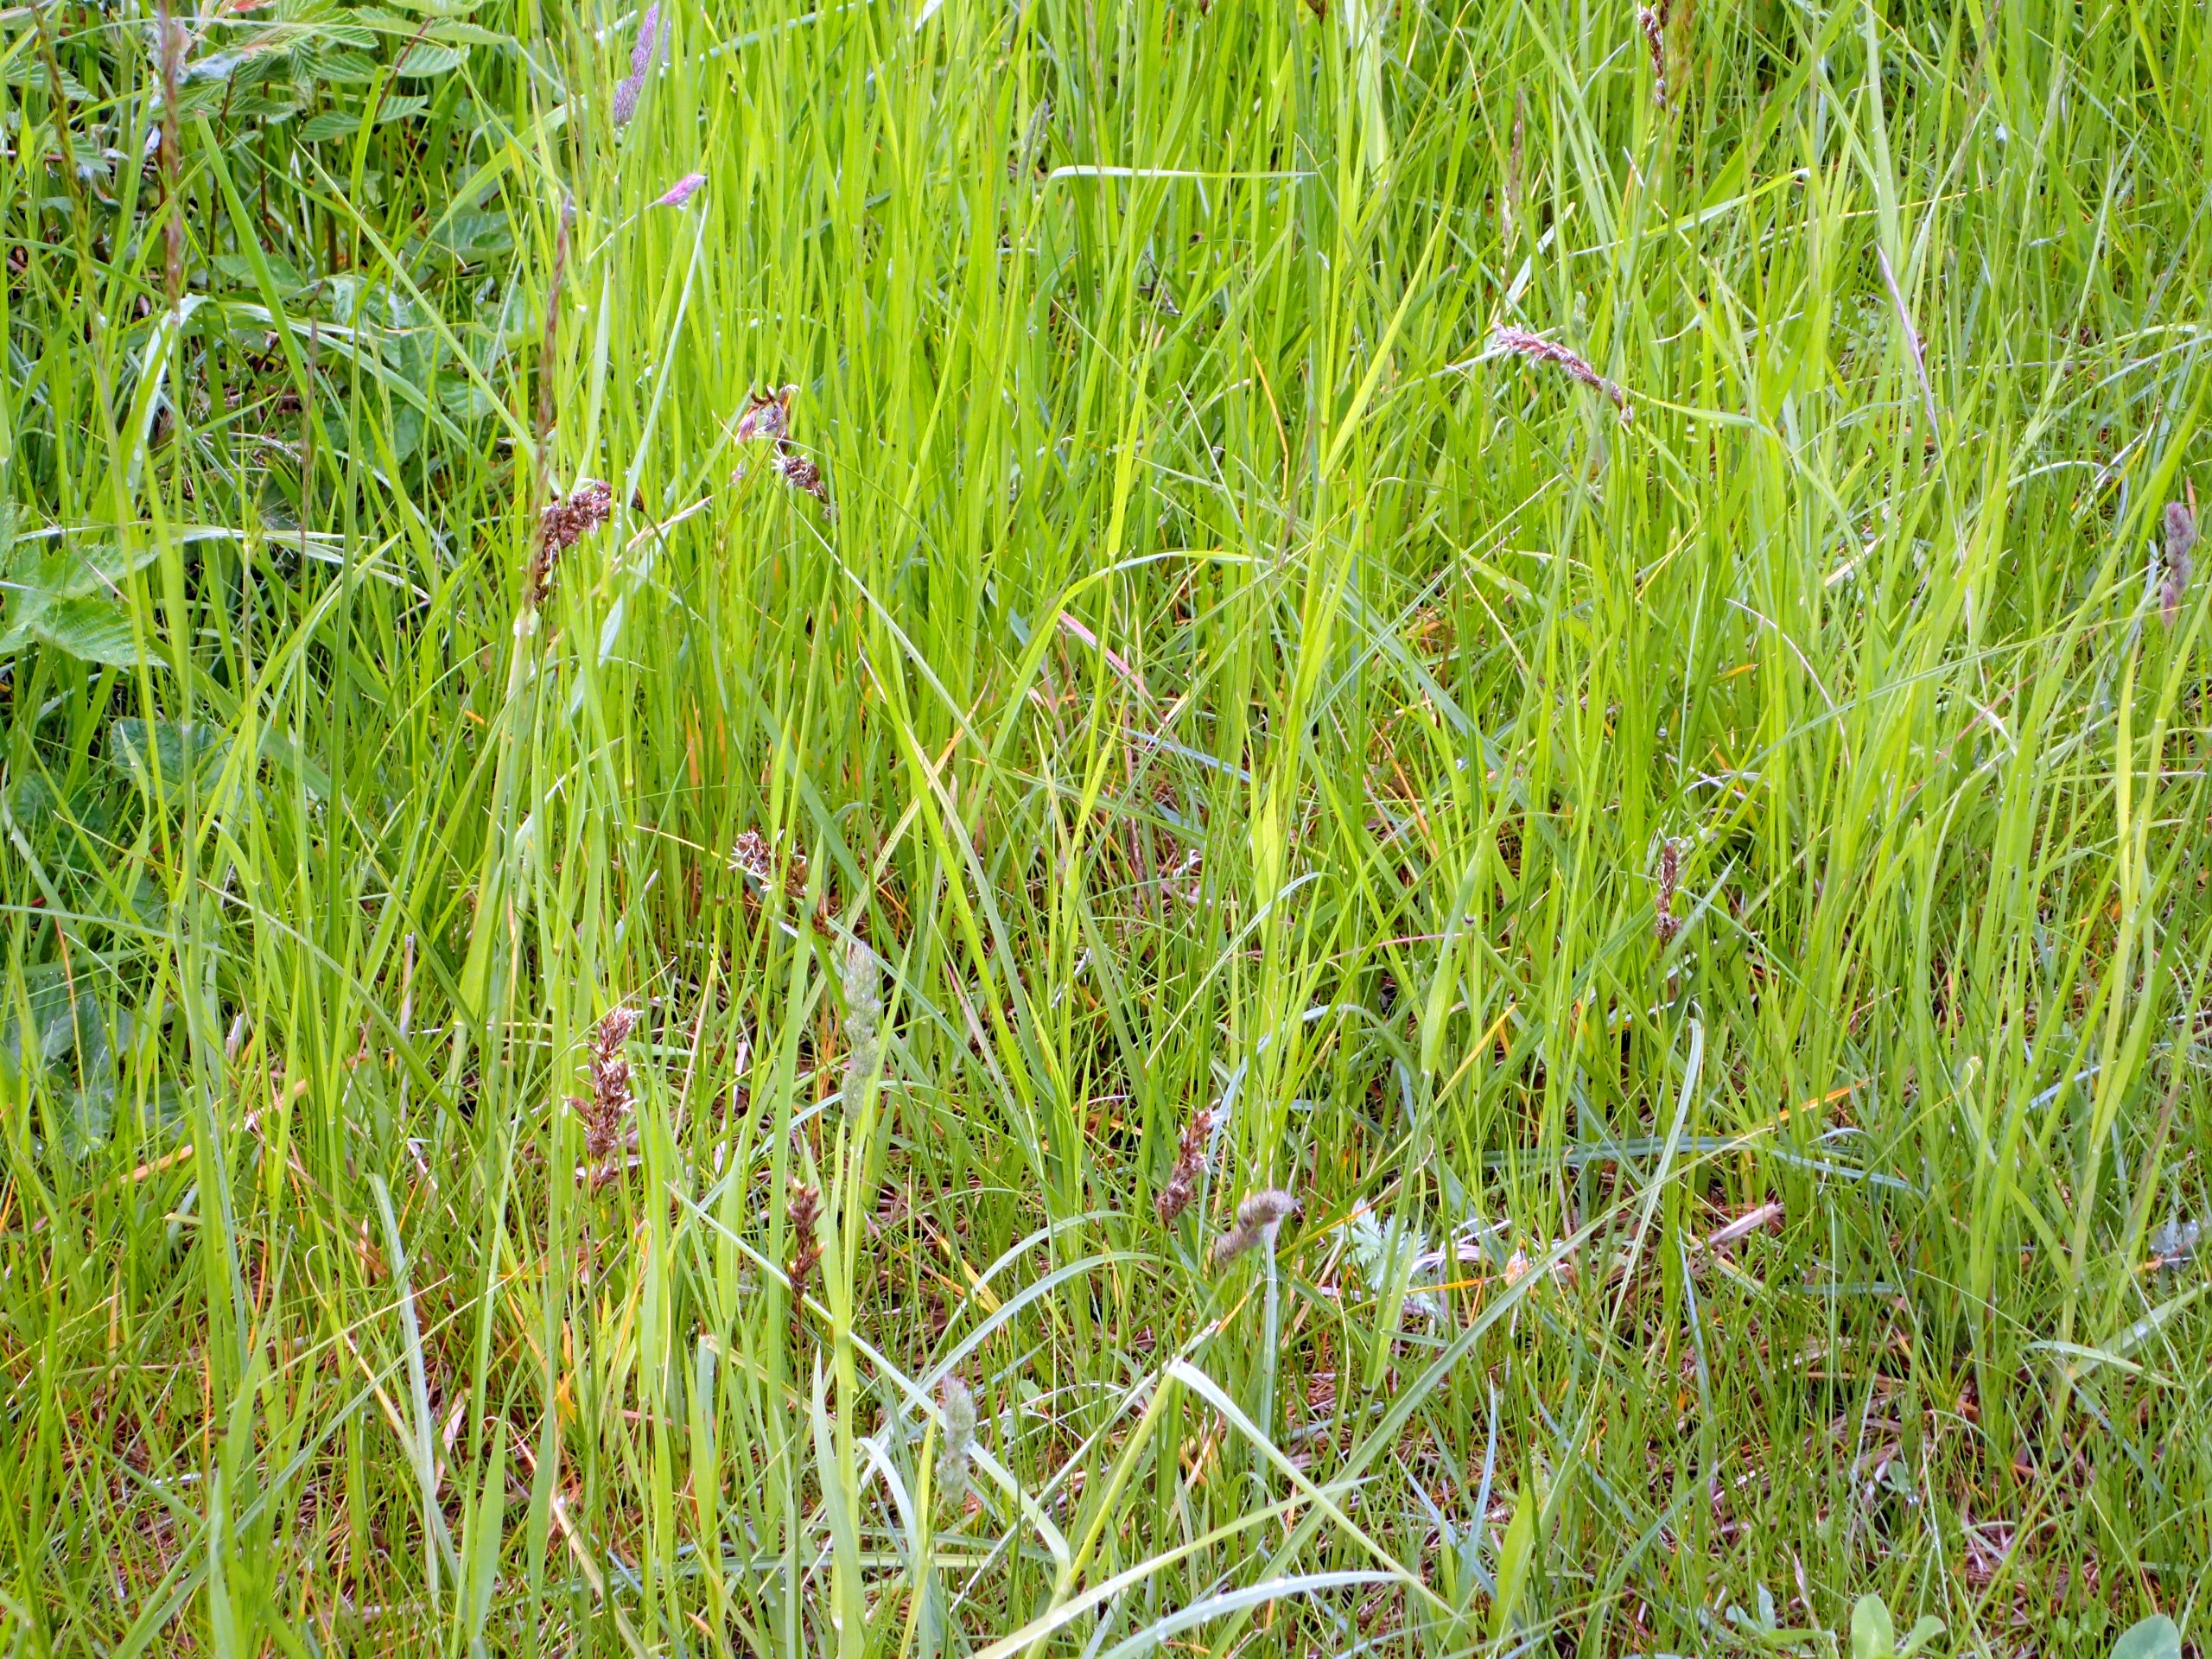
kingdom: Plantae
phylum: Tracheophyta
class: Liliopsida
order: Poales
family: Cyperaceae
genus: Carex
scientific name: Carex disticha
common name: Toradet star
